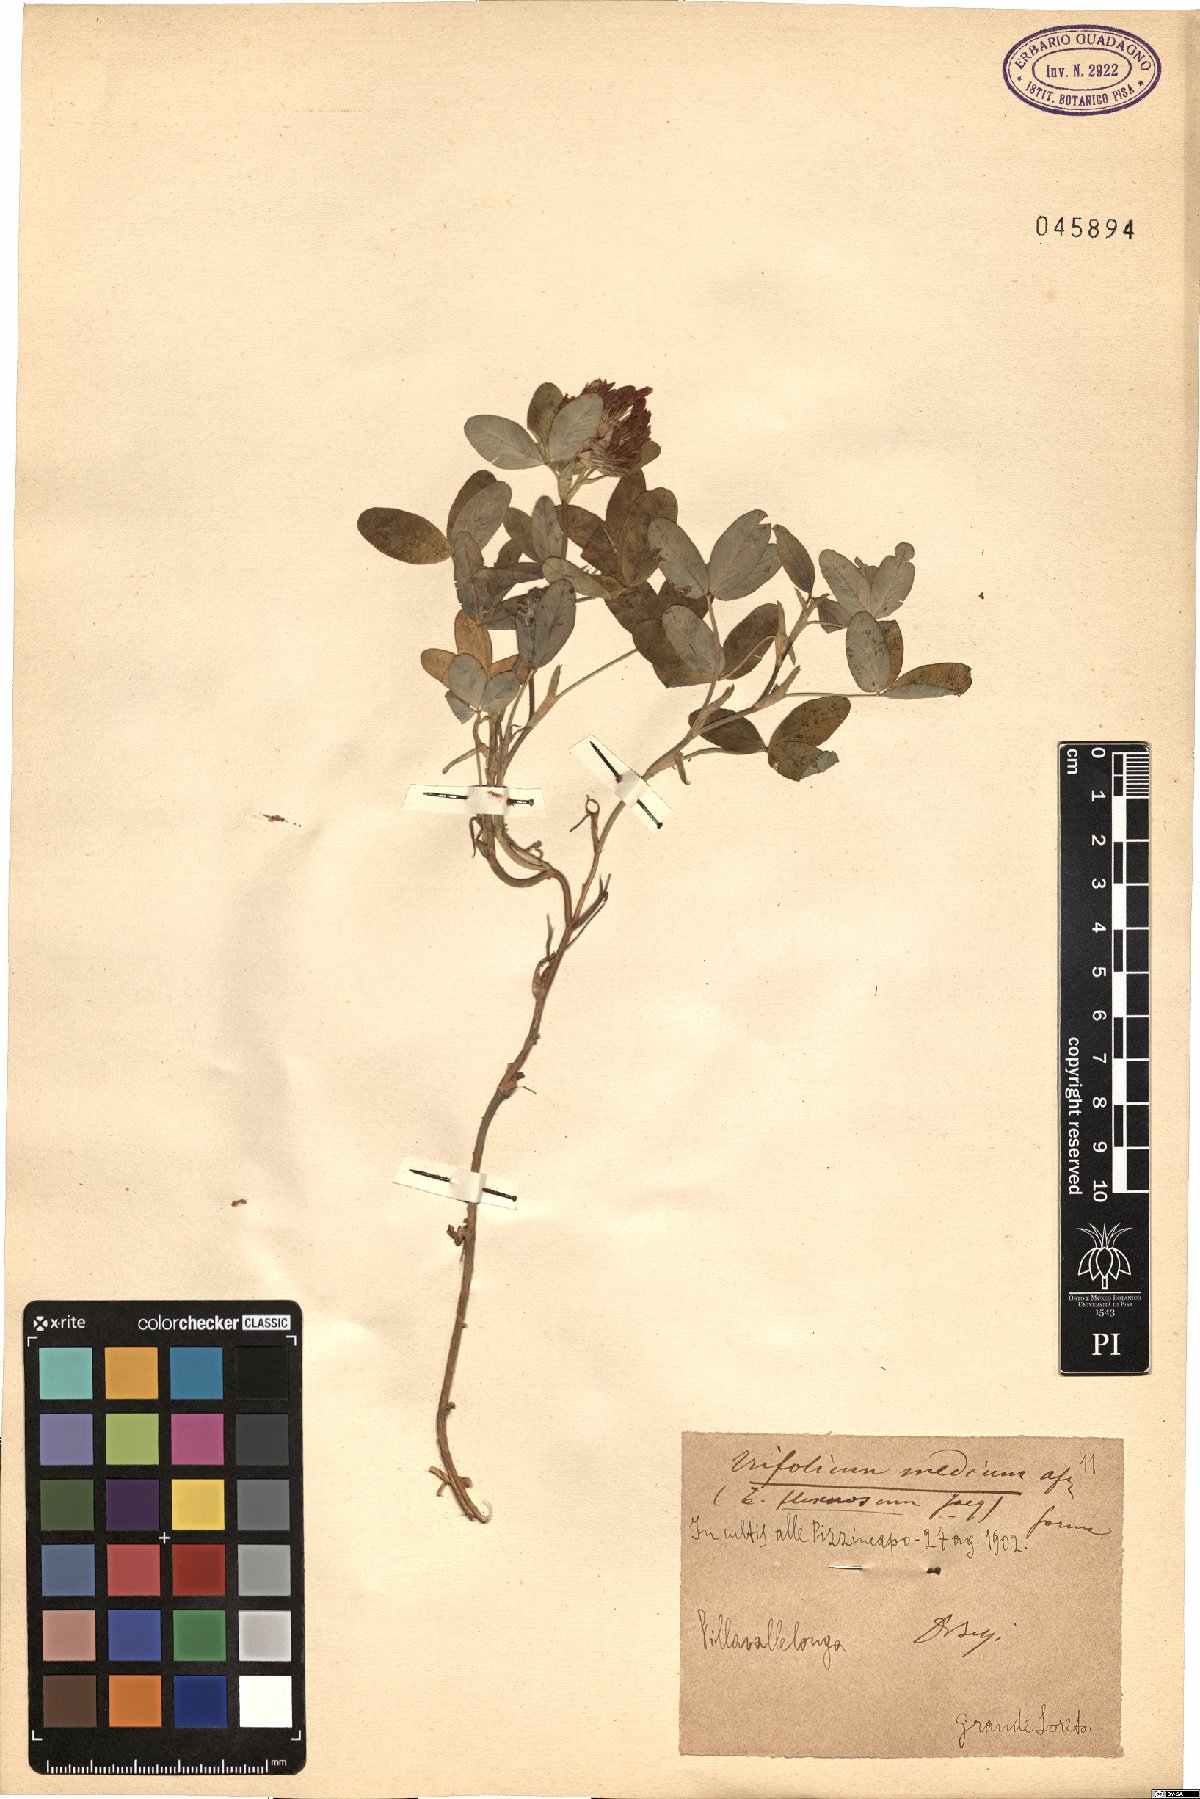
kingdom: Plantae
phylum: Tracheophyta
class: Magnoliopsida
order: Fabales
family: Fabaceae
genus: Trifolium
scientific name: Trifolium medium
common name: Zigzag clover
